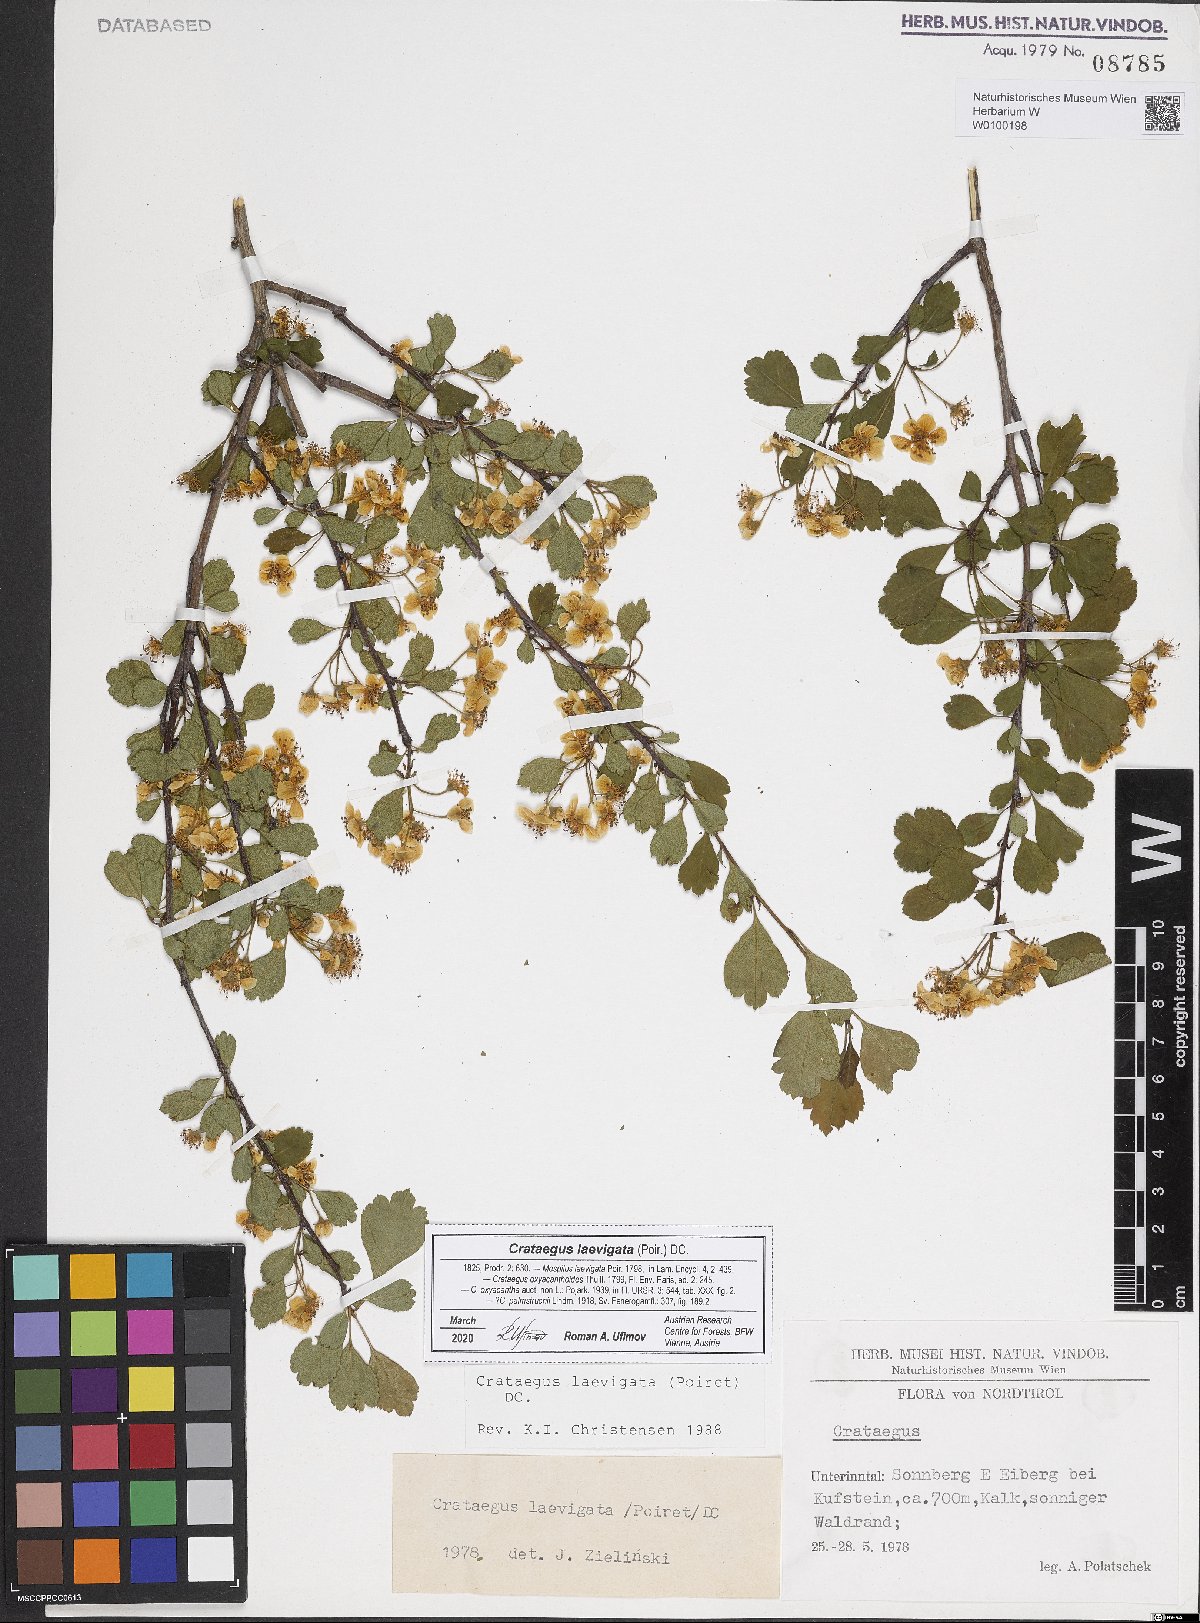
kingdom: Plantae
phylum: Tracheophyta
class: Magnoliopsida
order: Rosales
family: Rosaceae
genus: Crataegus
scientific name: Crataegus laevigata
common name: Midland hawthorn
